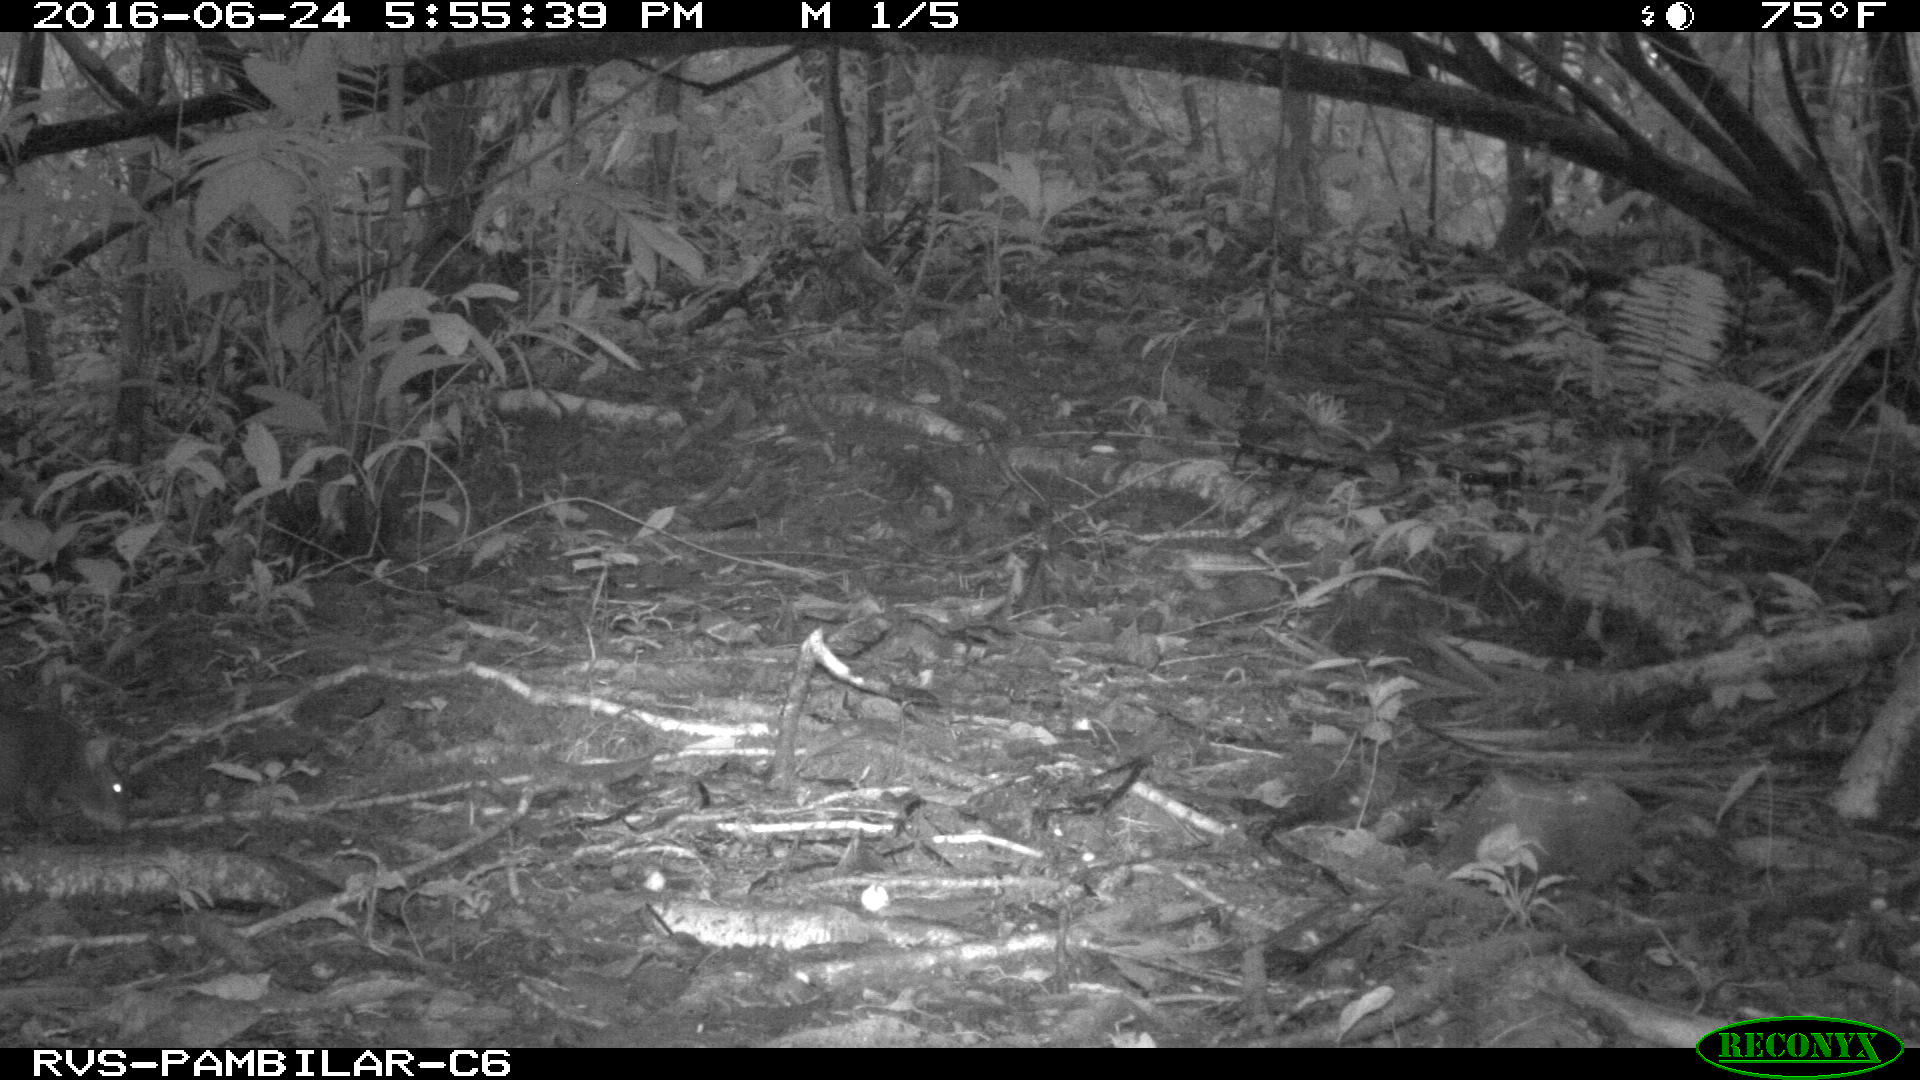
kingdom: Animalia
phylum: Chordata
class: Mammalia
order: Rodentia
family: Dasyproctidae
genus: Dasyprocta
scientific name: Dasyprocta punctata
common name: Central american agouti
